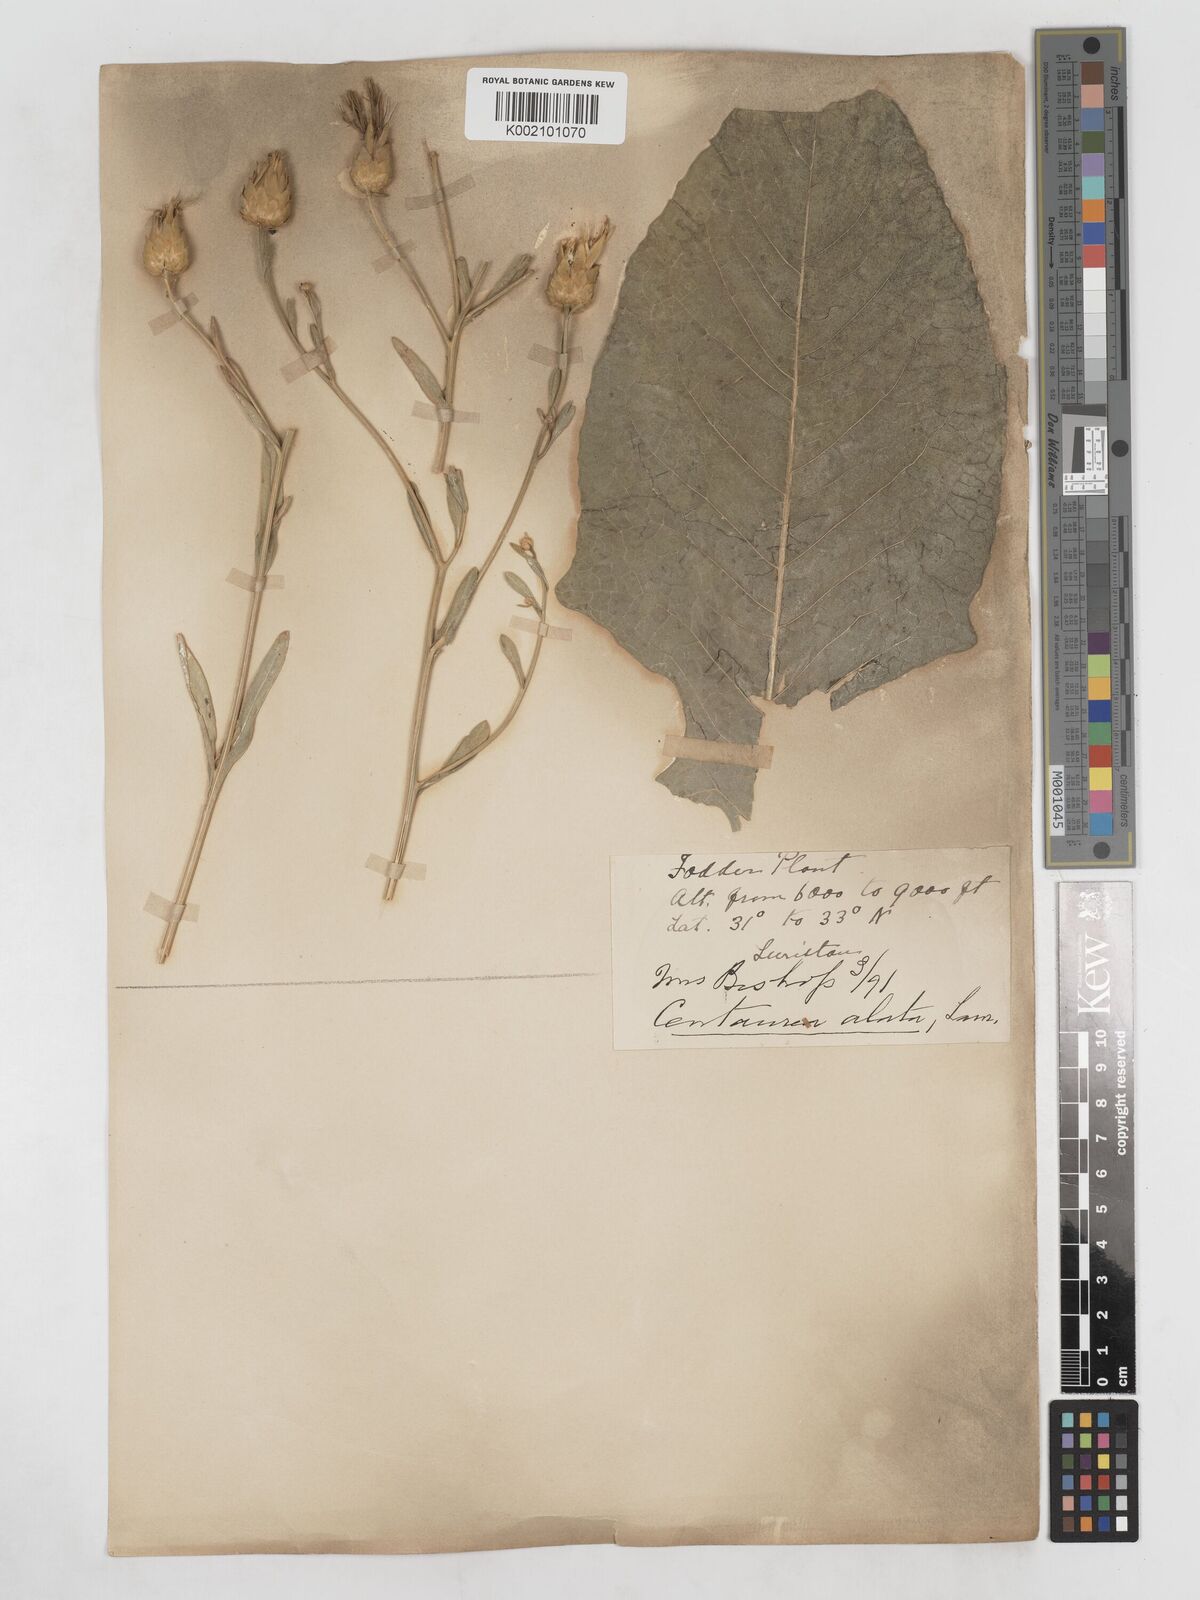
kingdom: Plantae
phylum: Tracheophyta
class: Magnoliopsida
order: Asterales
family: Asteraceae
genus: Centaurea
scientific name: Centaurea behen
